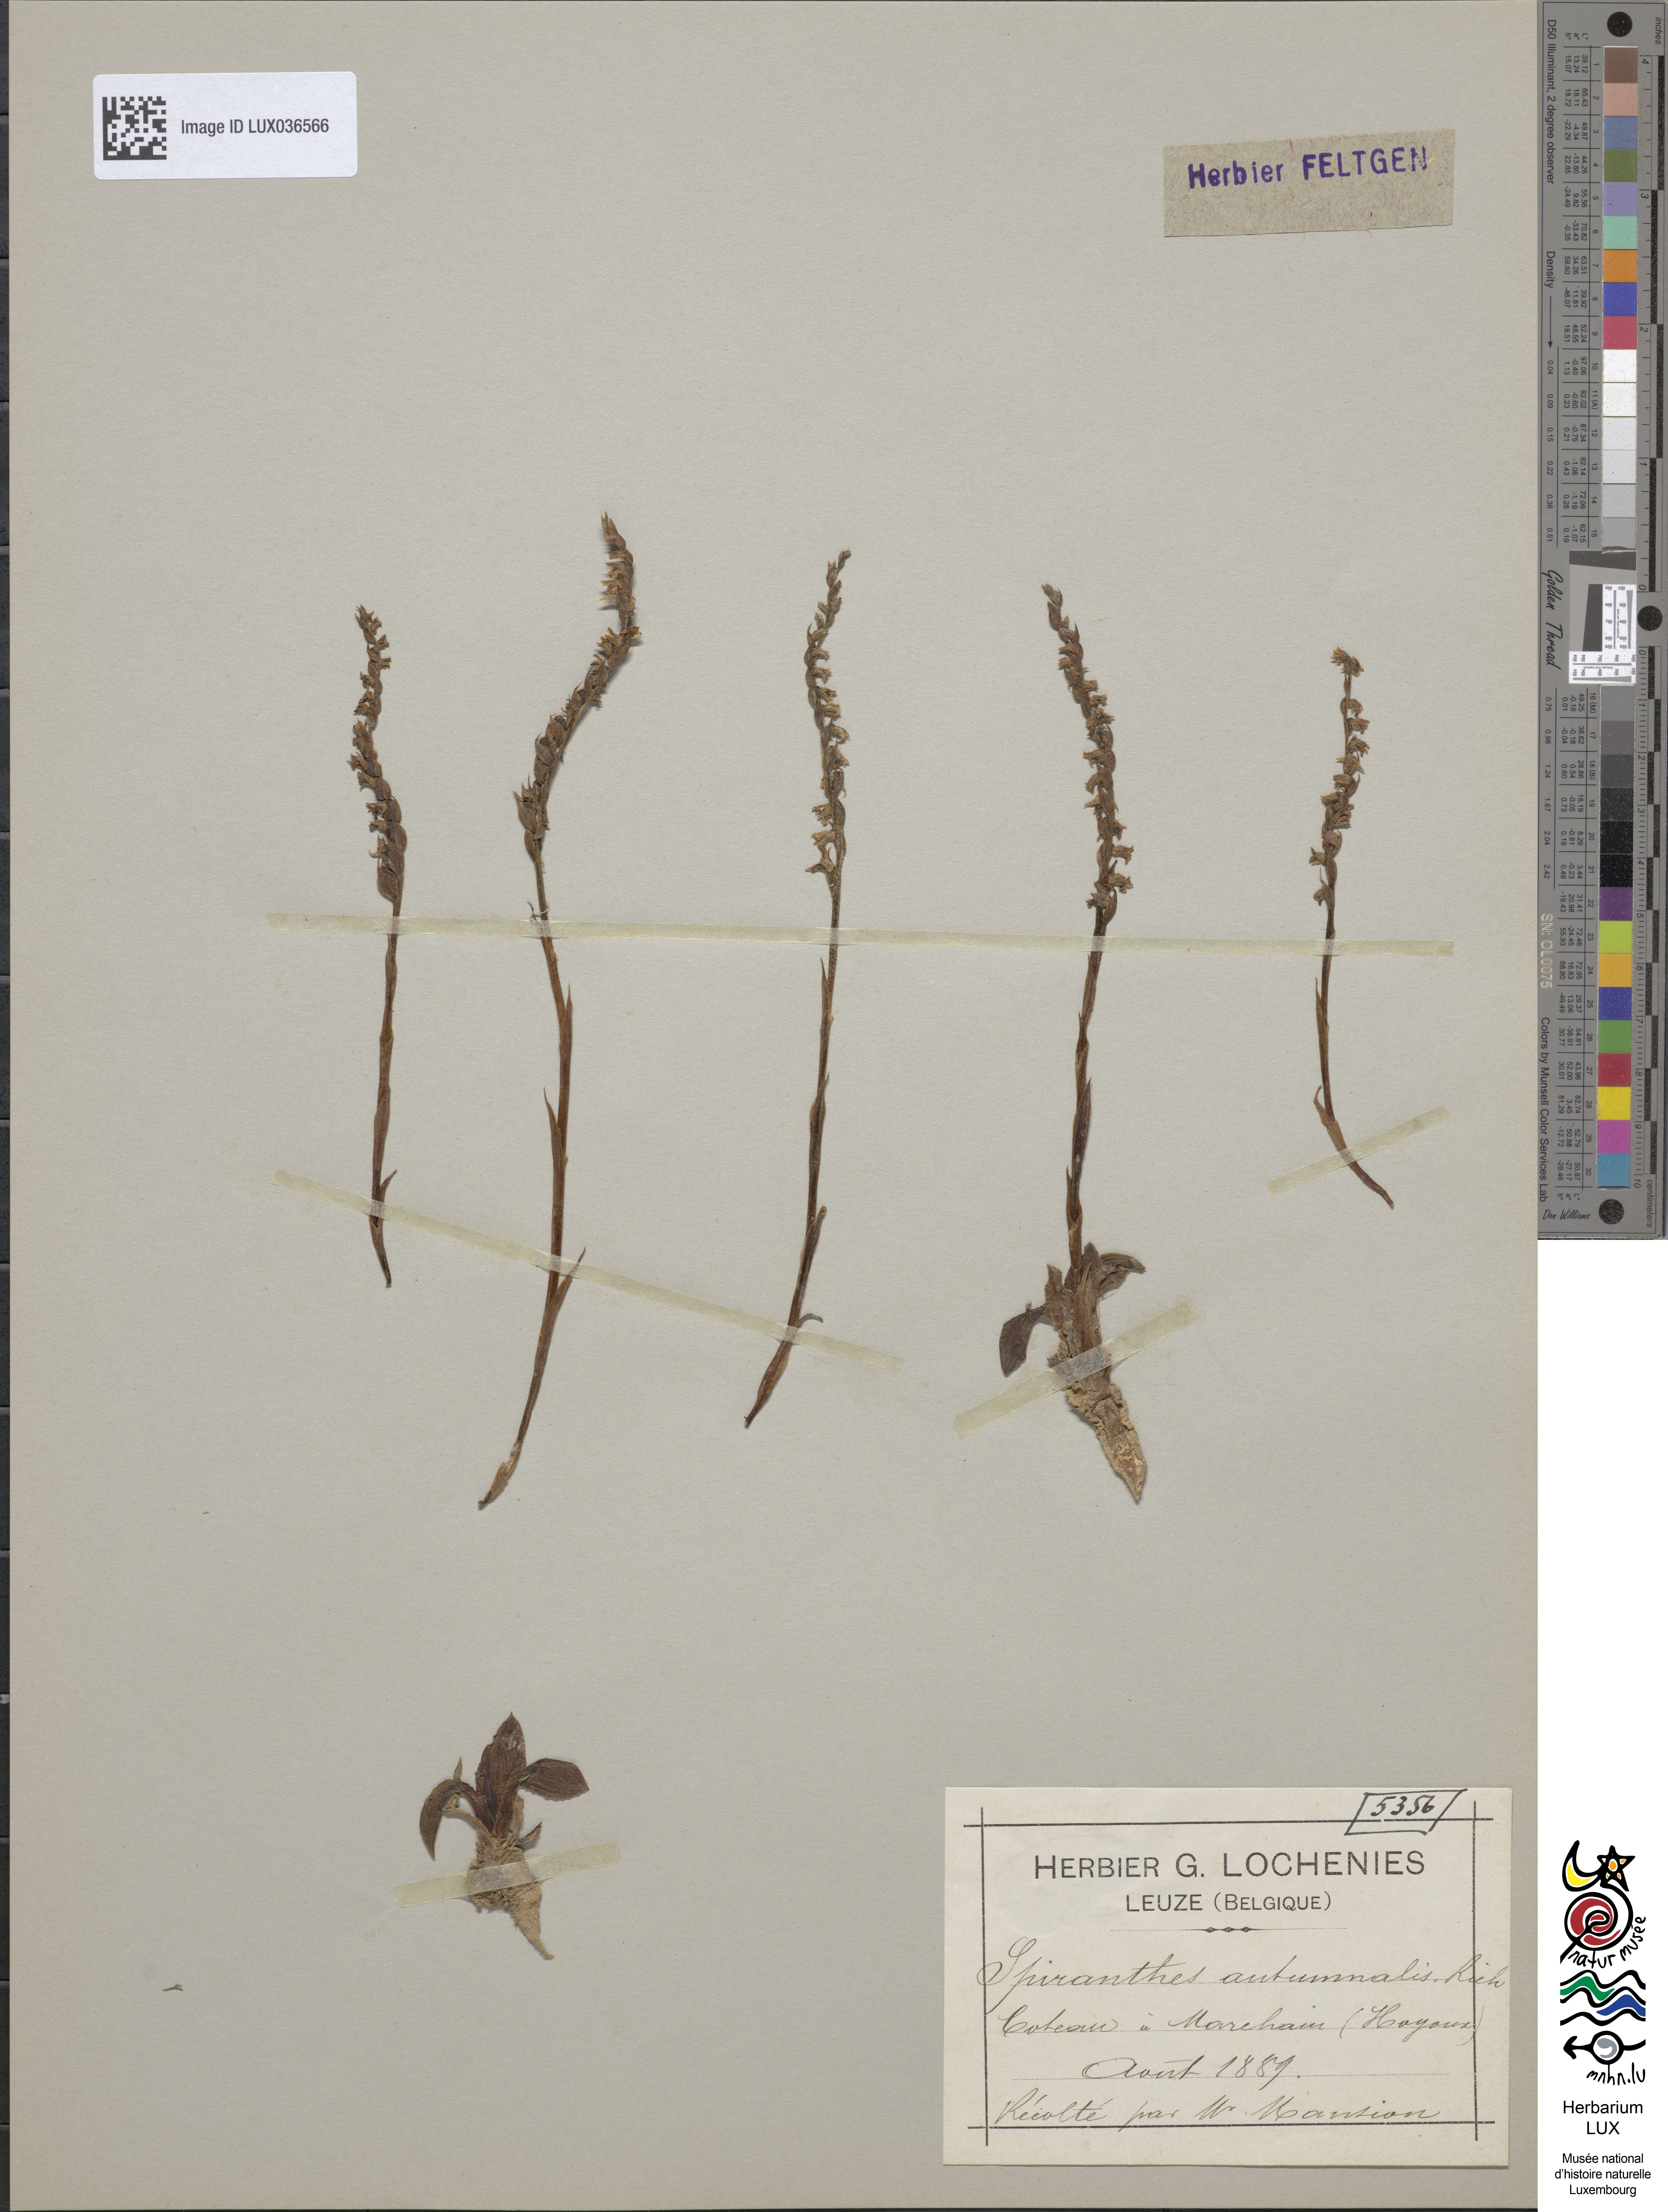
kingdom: Plantae
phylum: Tracheophyta
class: Liliopsida
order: Asparagales
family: Orchidaceae
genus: Spiranthes
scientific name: Spiranthes spiralis
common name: Autumn lady's-tresses
